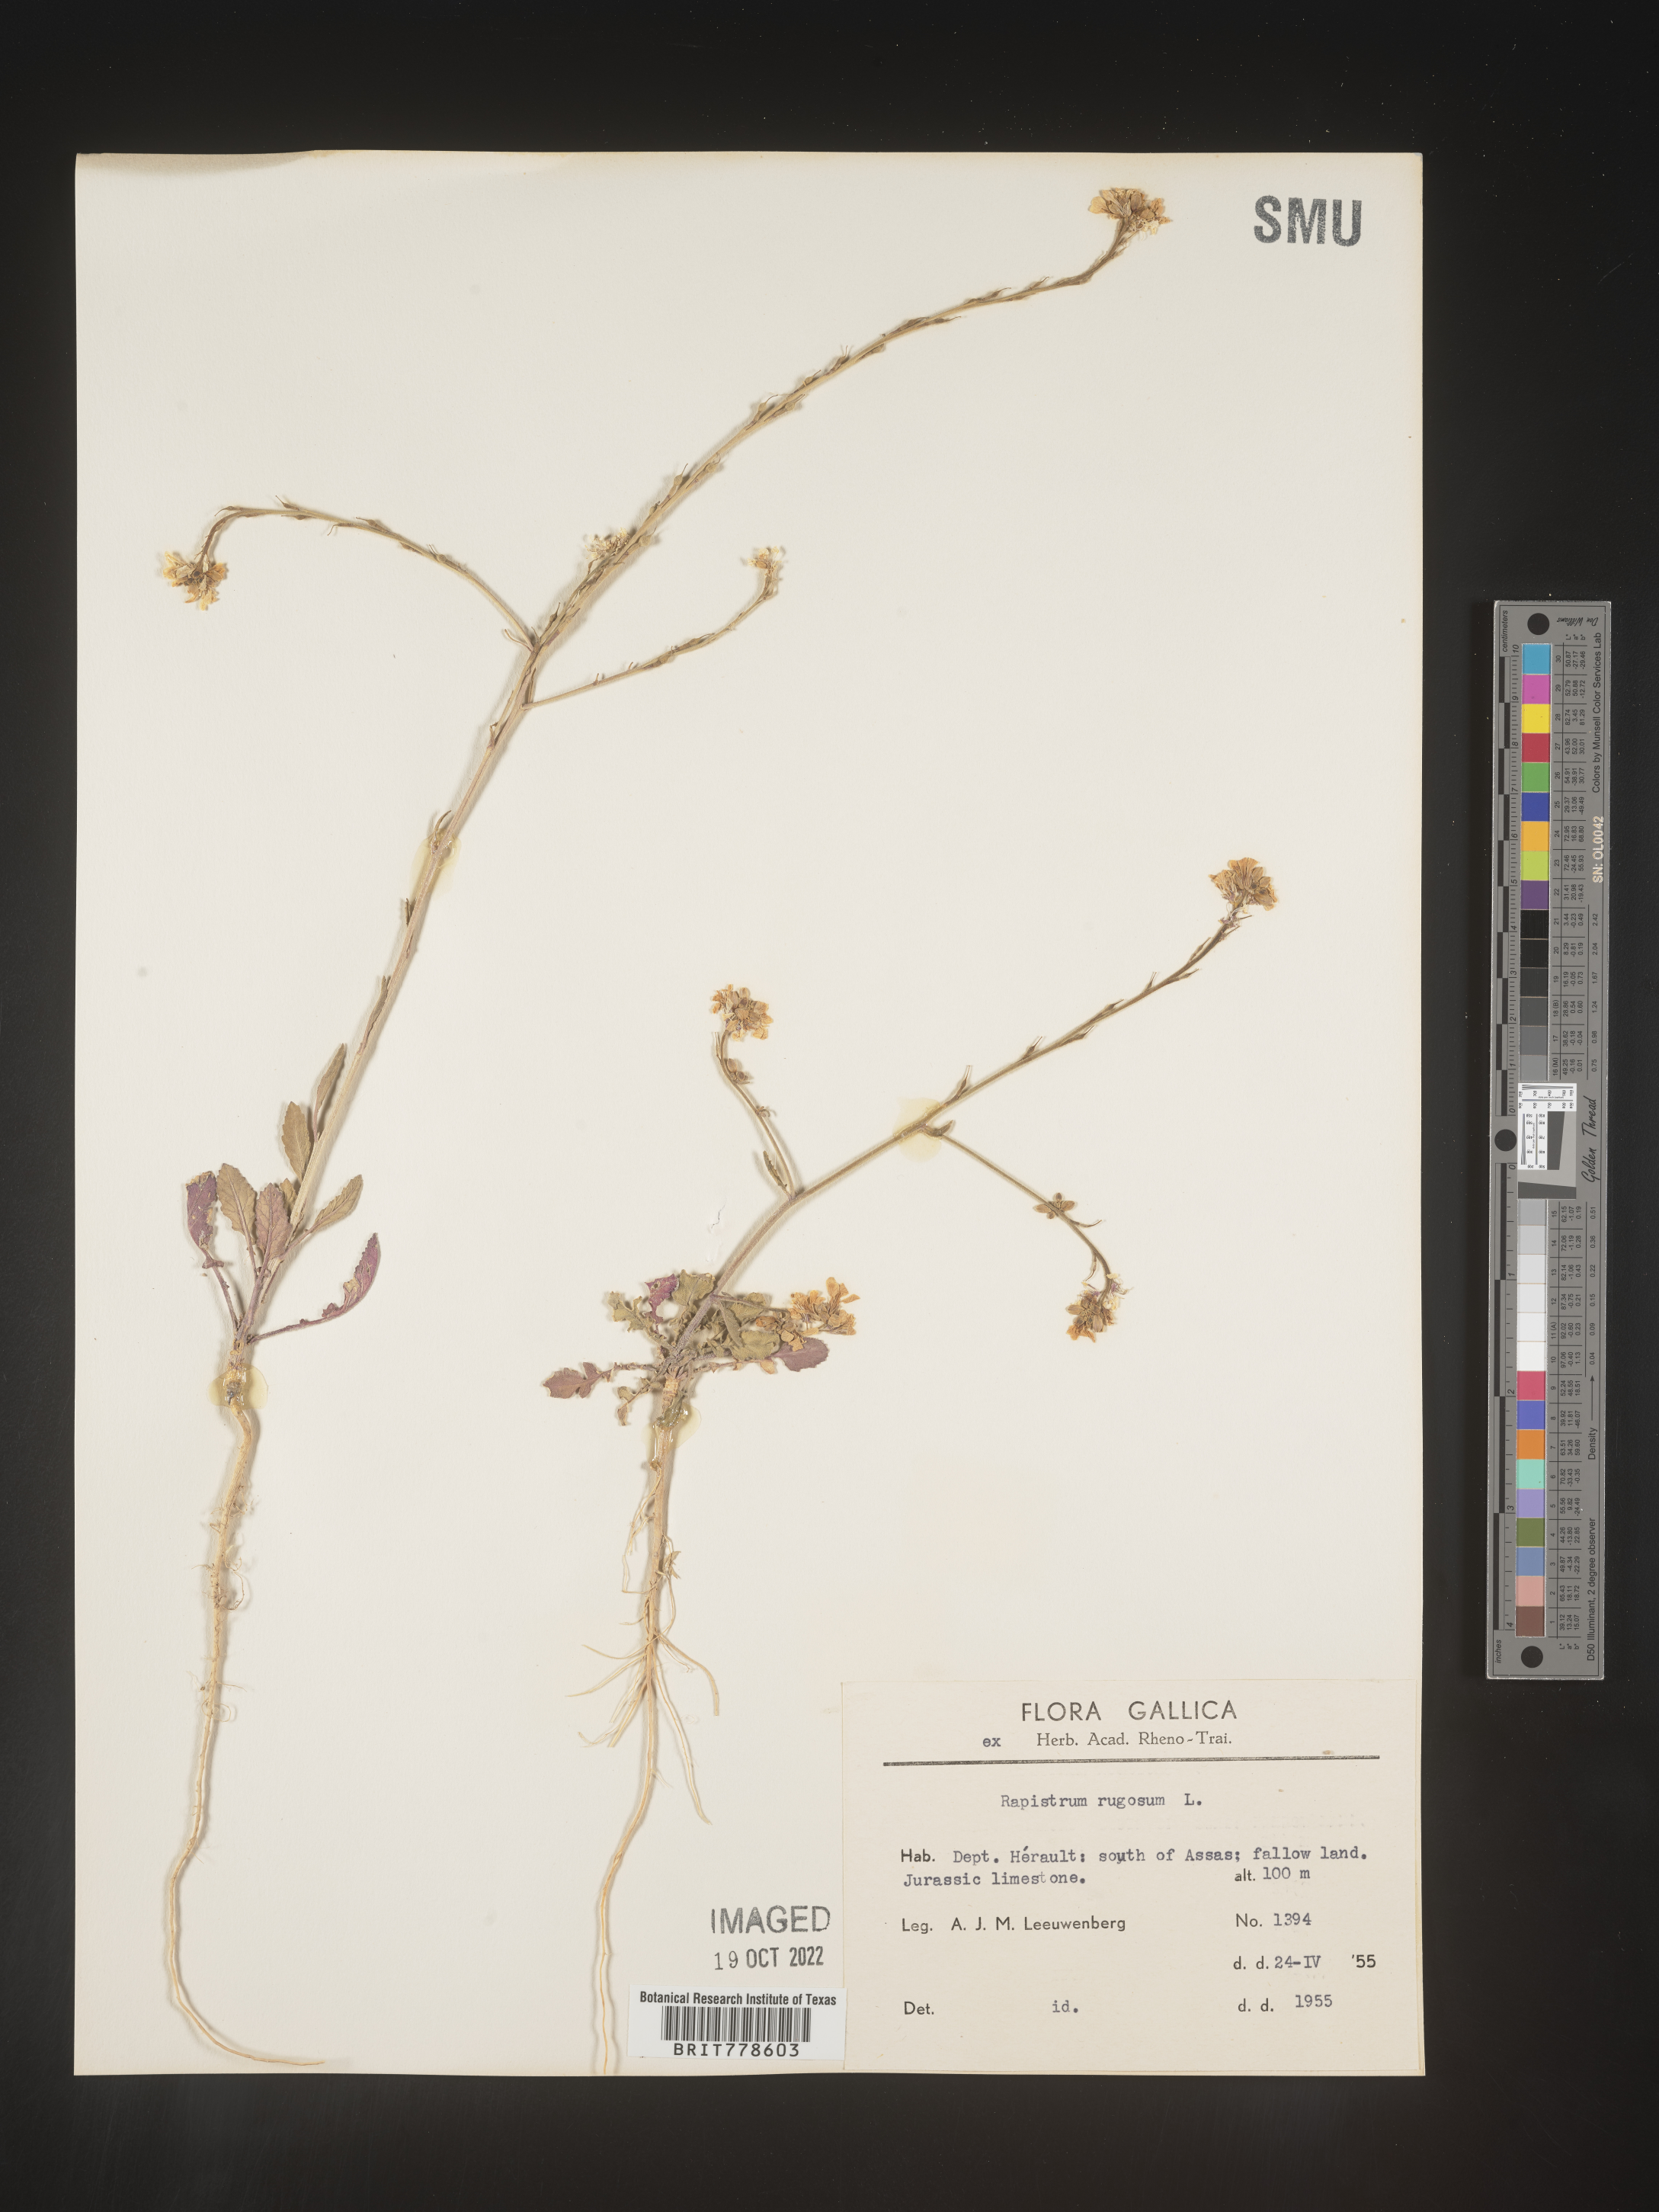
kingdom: Plantae
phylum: Tracheophyta
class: Magnoliopsida
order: Brassicales
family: Brassicaceae
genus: Rapistrum
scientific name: Rapistrum
